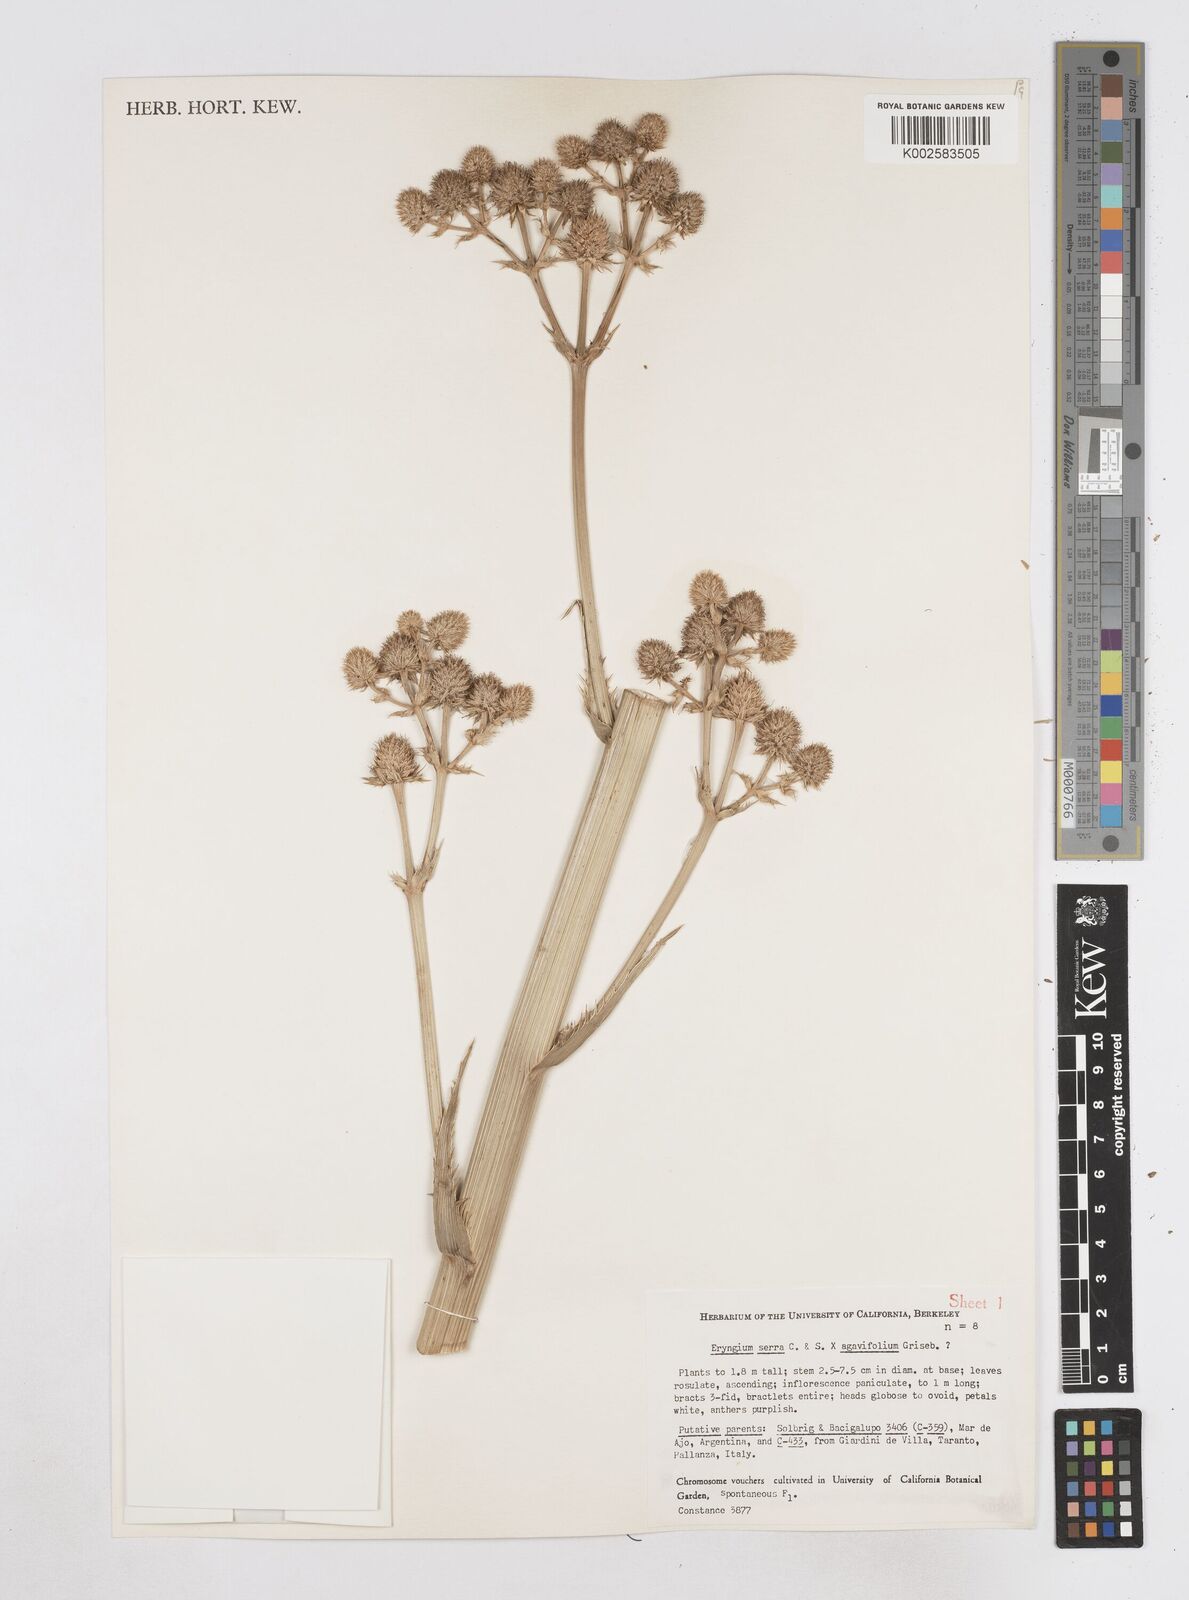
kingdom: Plantae
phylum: Tracheophyta
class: Magnoliopsida
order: Apiales
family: Apiaceae
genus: Eryngium
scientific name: Eryngium agavifolium
